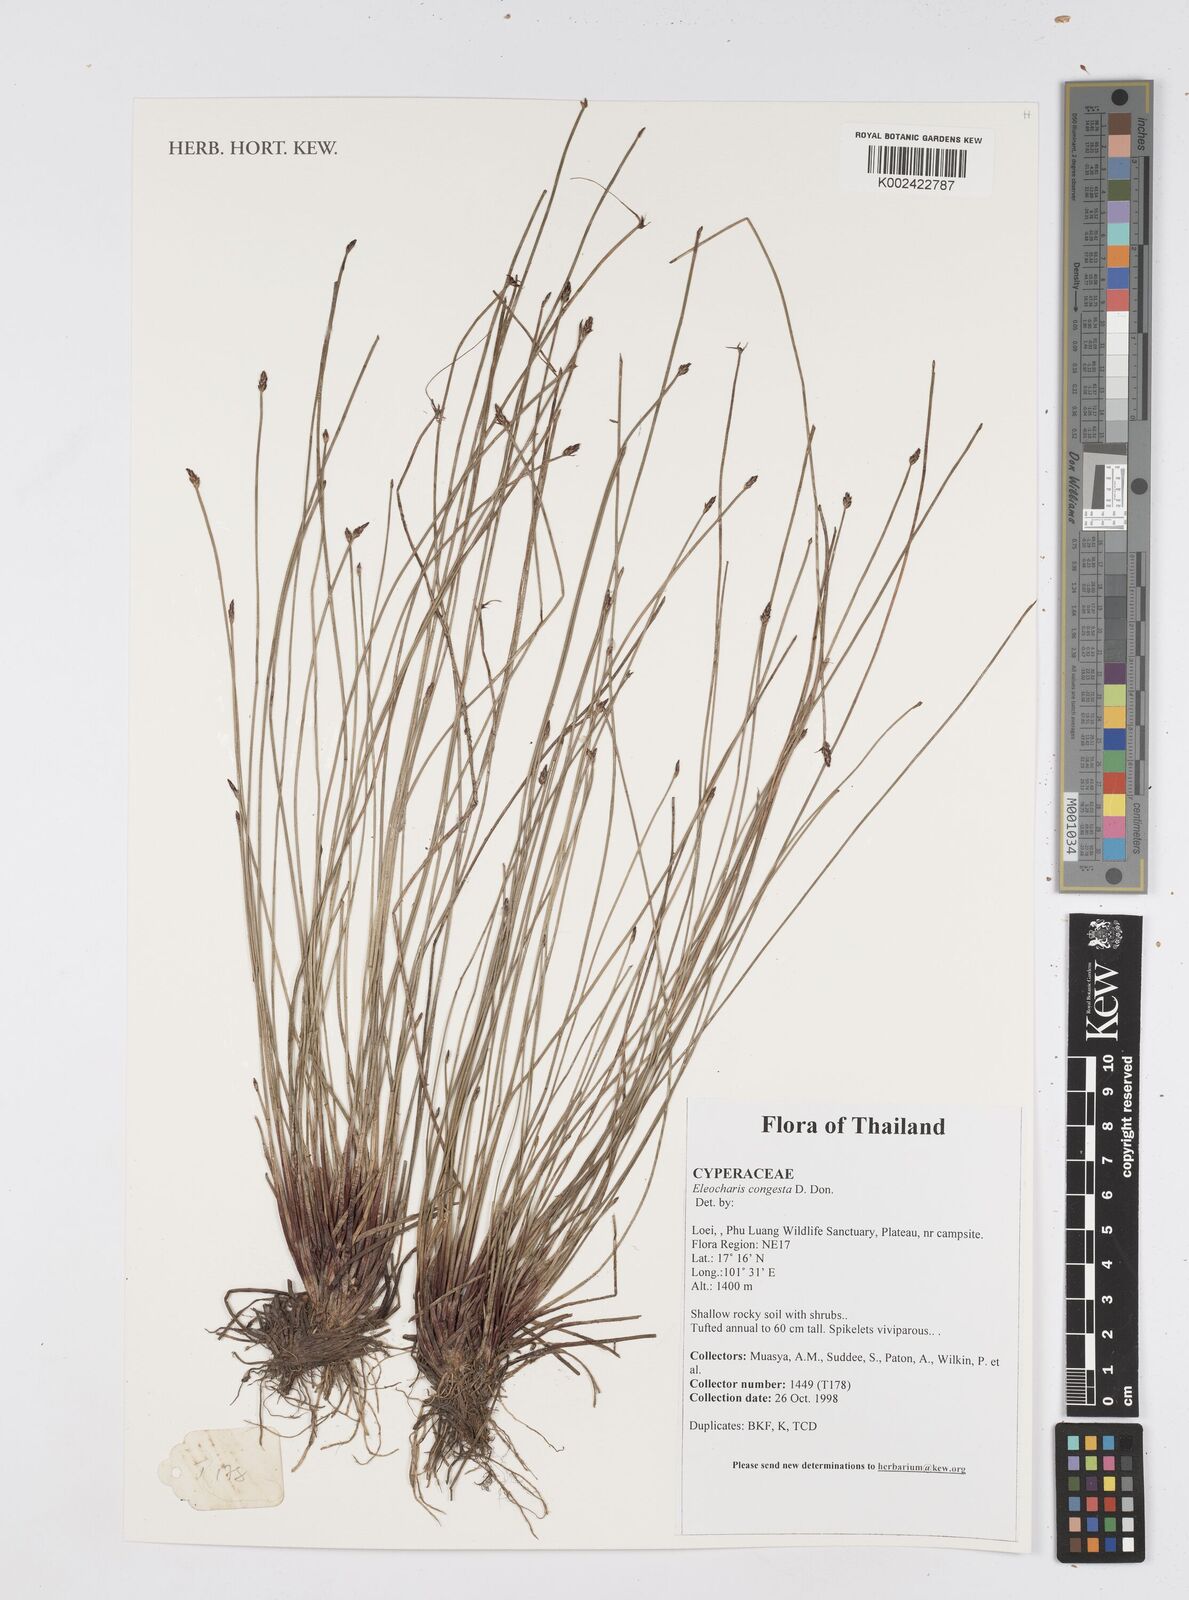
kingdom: Plantae
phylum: Tracheophyta
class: Liliopsida
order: Poales
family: Cyperaceae
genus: Eleocharis
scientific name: Eleocharis congesta
